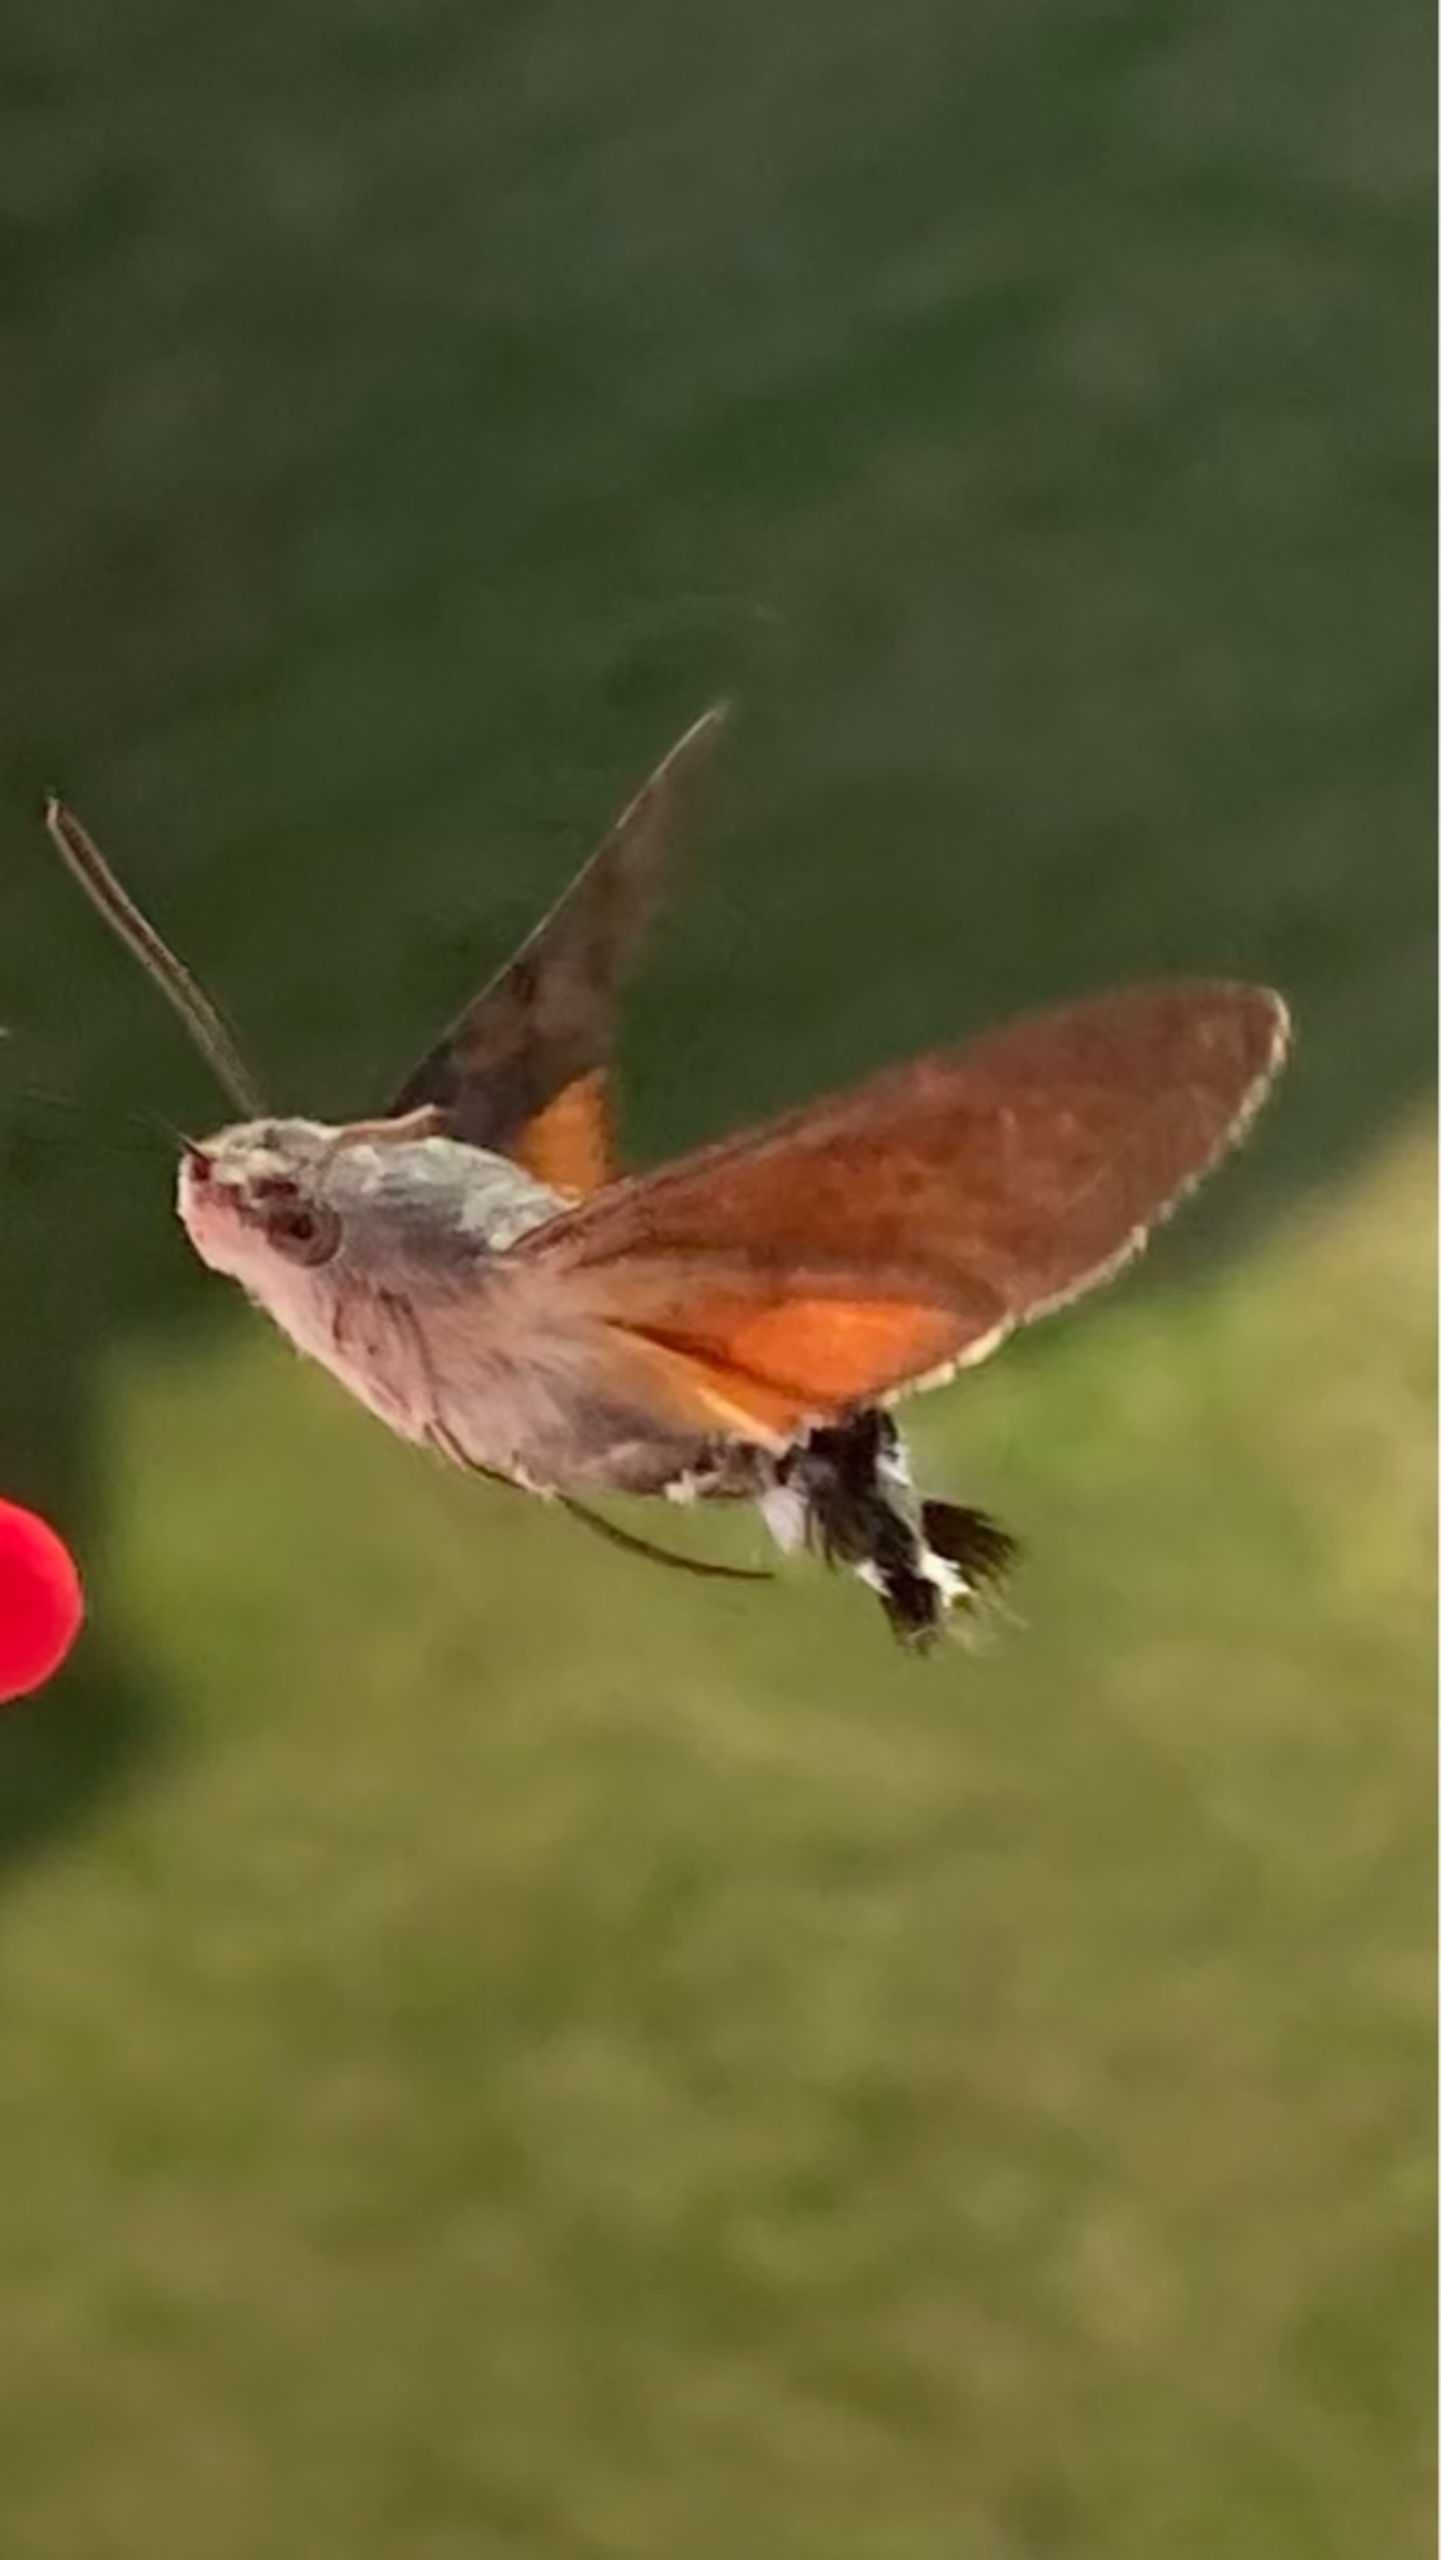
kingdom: Animalia
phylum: Arthropoda
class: Insecta
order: Lepidoptera
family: Sphingidae
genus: Macroglossum
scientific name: Macroglossum stellatarum
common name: Duehale
